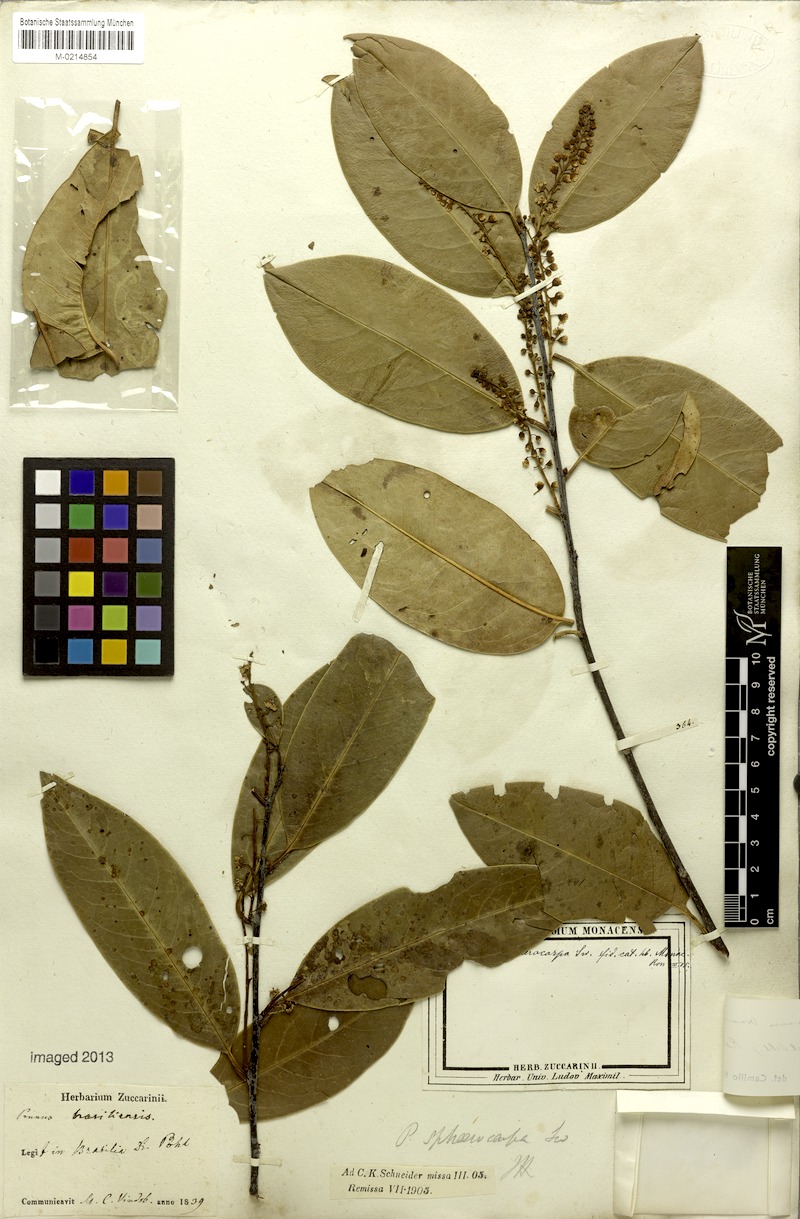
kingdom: Plantae
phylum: Tracheophyta
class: Magnoliopsida
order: Rosales
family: Rosaceae
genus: Prunus
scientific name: Prunus brasiliensis
